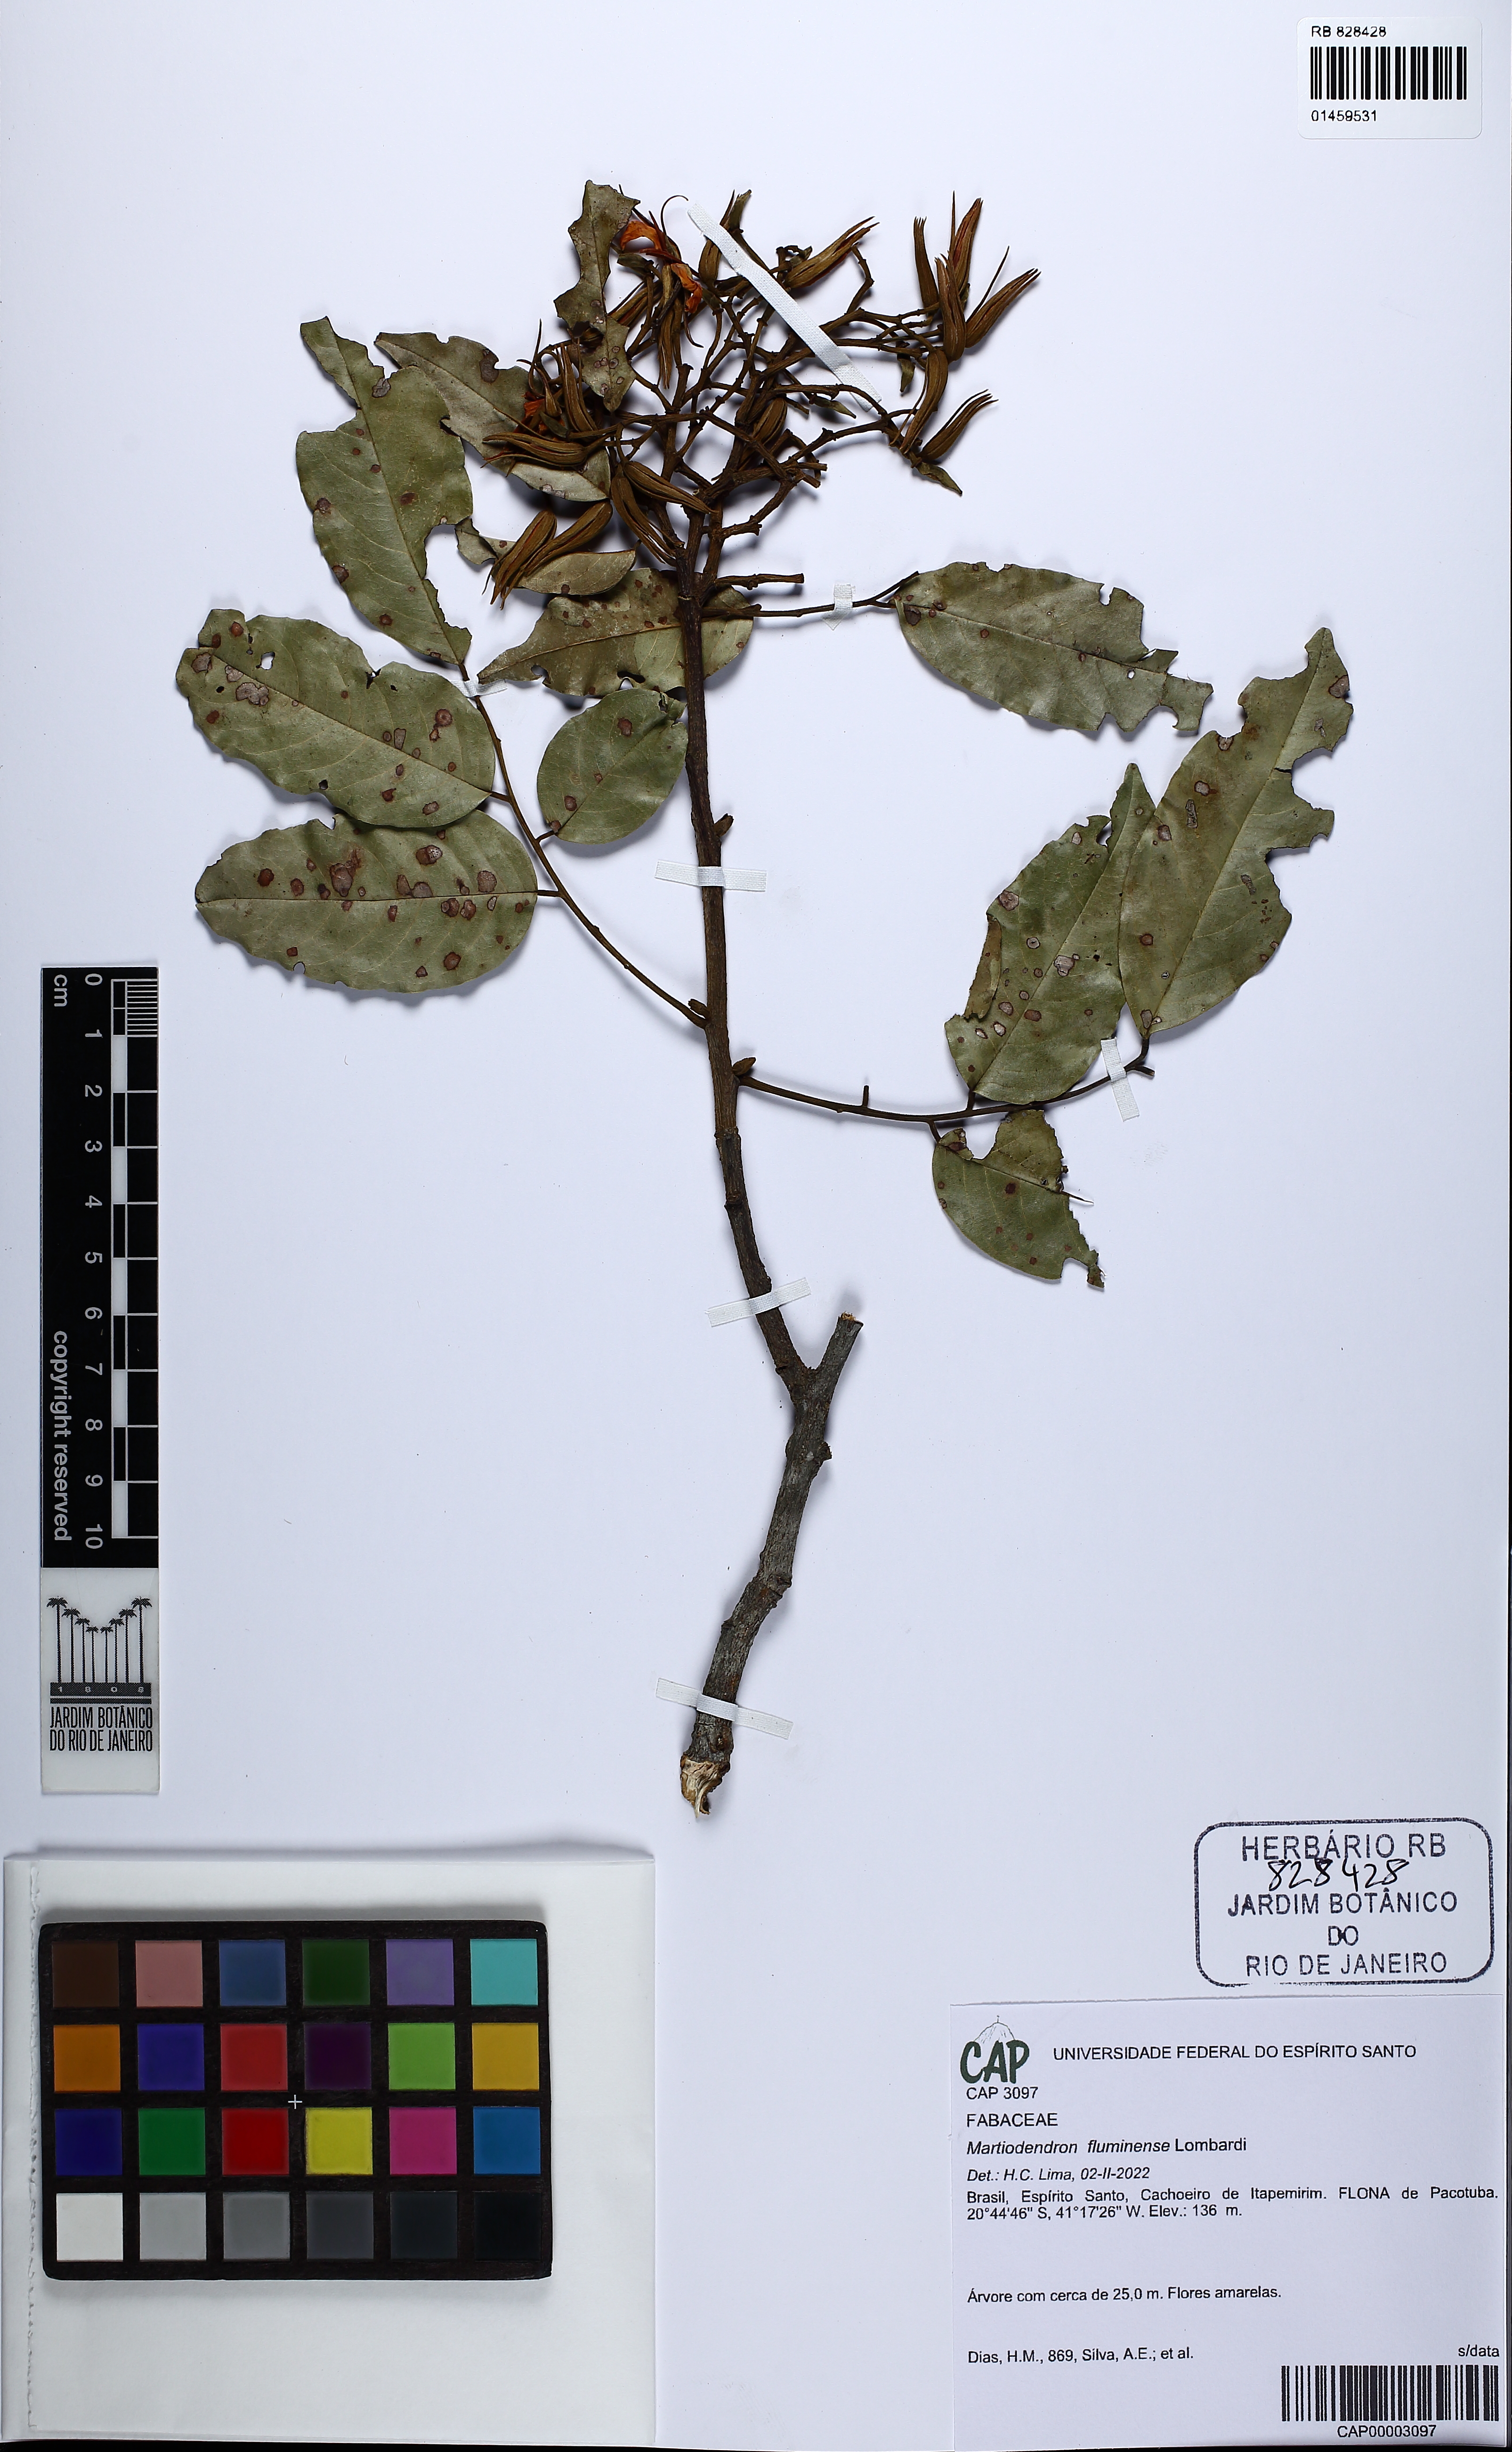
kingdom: Plantae
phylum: Tracheophyta
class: Magnoliopsida
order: Fabales
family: Fabaceae
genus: Martiodendron
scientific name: Martiodendron fluminense
